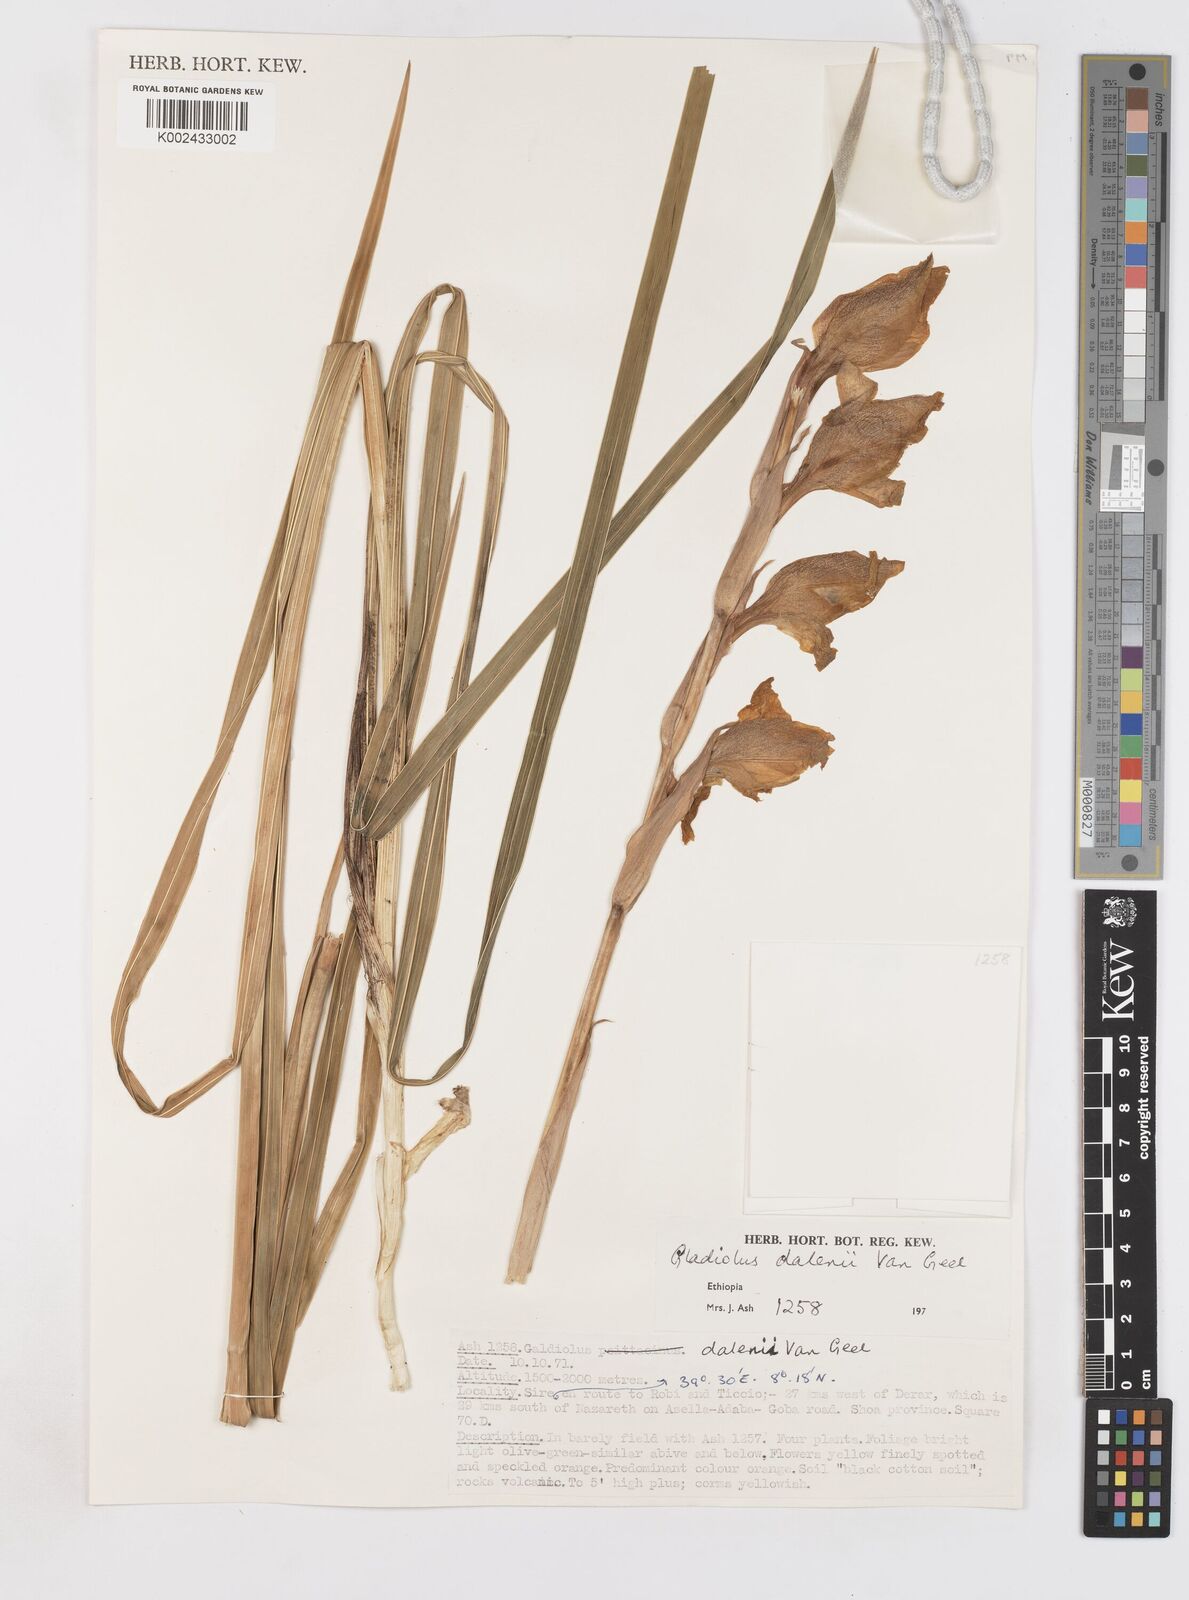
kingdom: Plantae
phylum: Tracheophyta
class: Liliopsida
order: Asparagales
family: Iridaceae
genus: Gladiolus
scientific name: Gladiolus dalenii
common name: Cornflag
